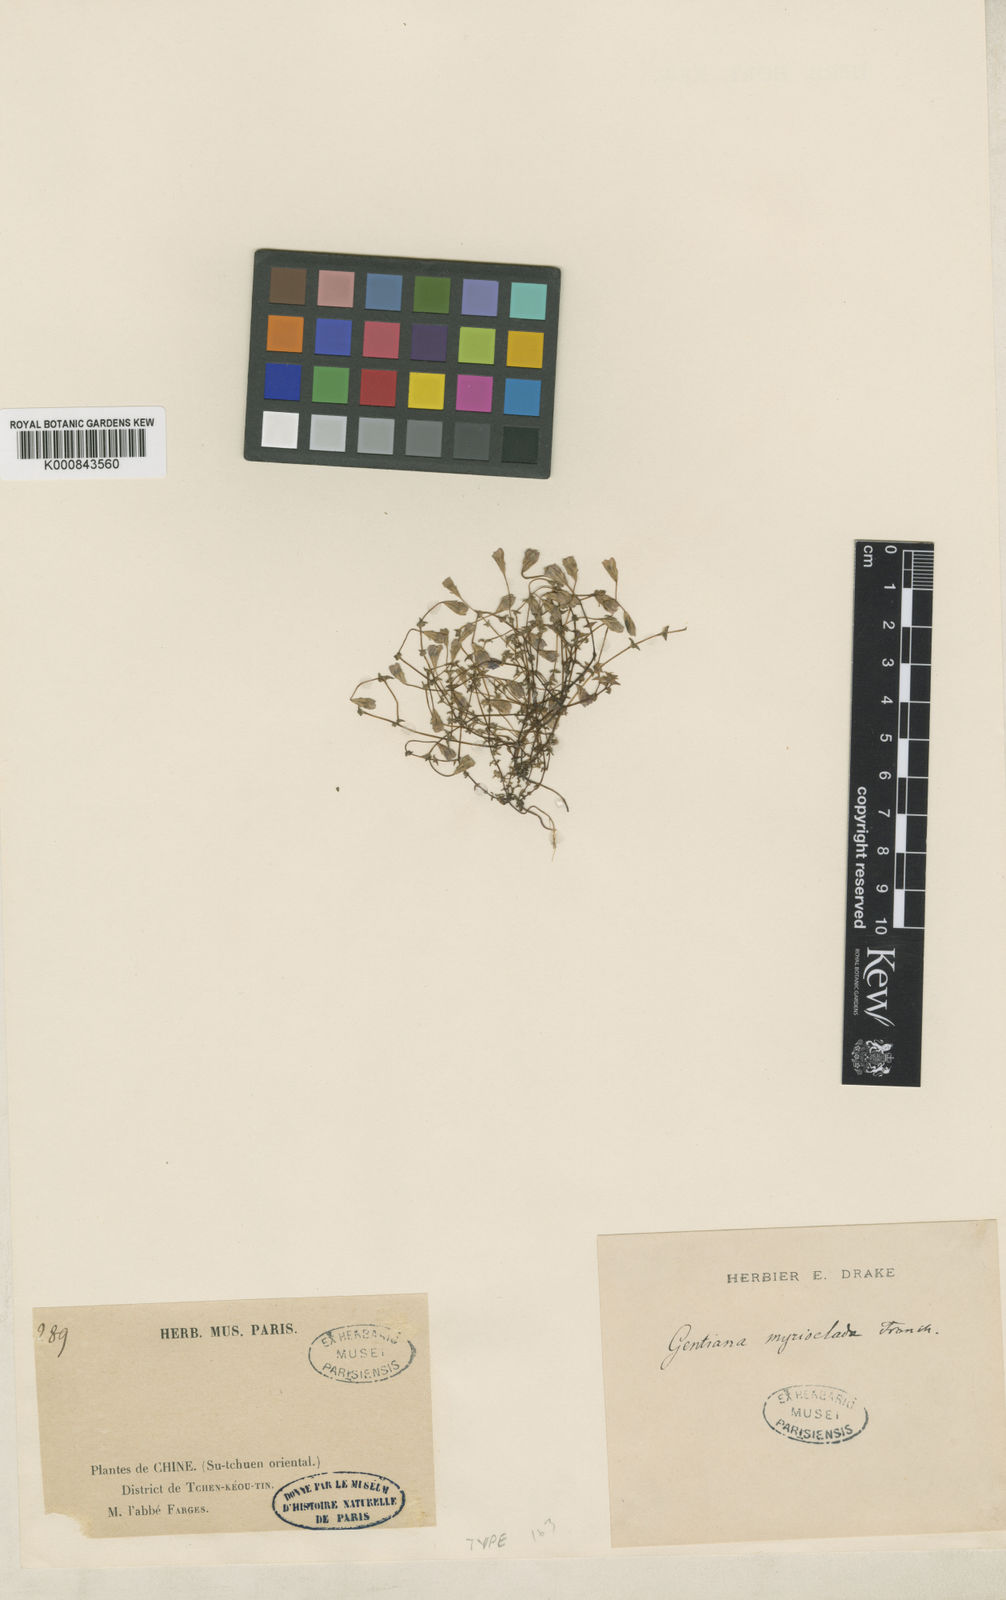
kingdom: Plantae
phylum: Tracheophyta
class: Magnoliopsida
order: Gentianales
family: Gentianaceae
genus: Gentiana
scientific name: Gentiana myrioclada
